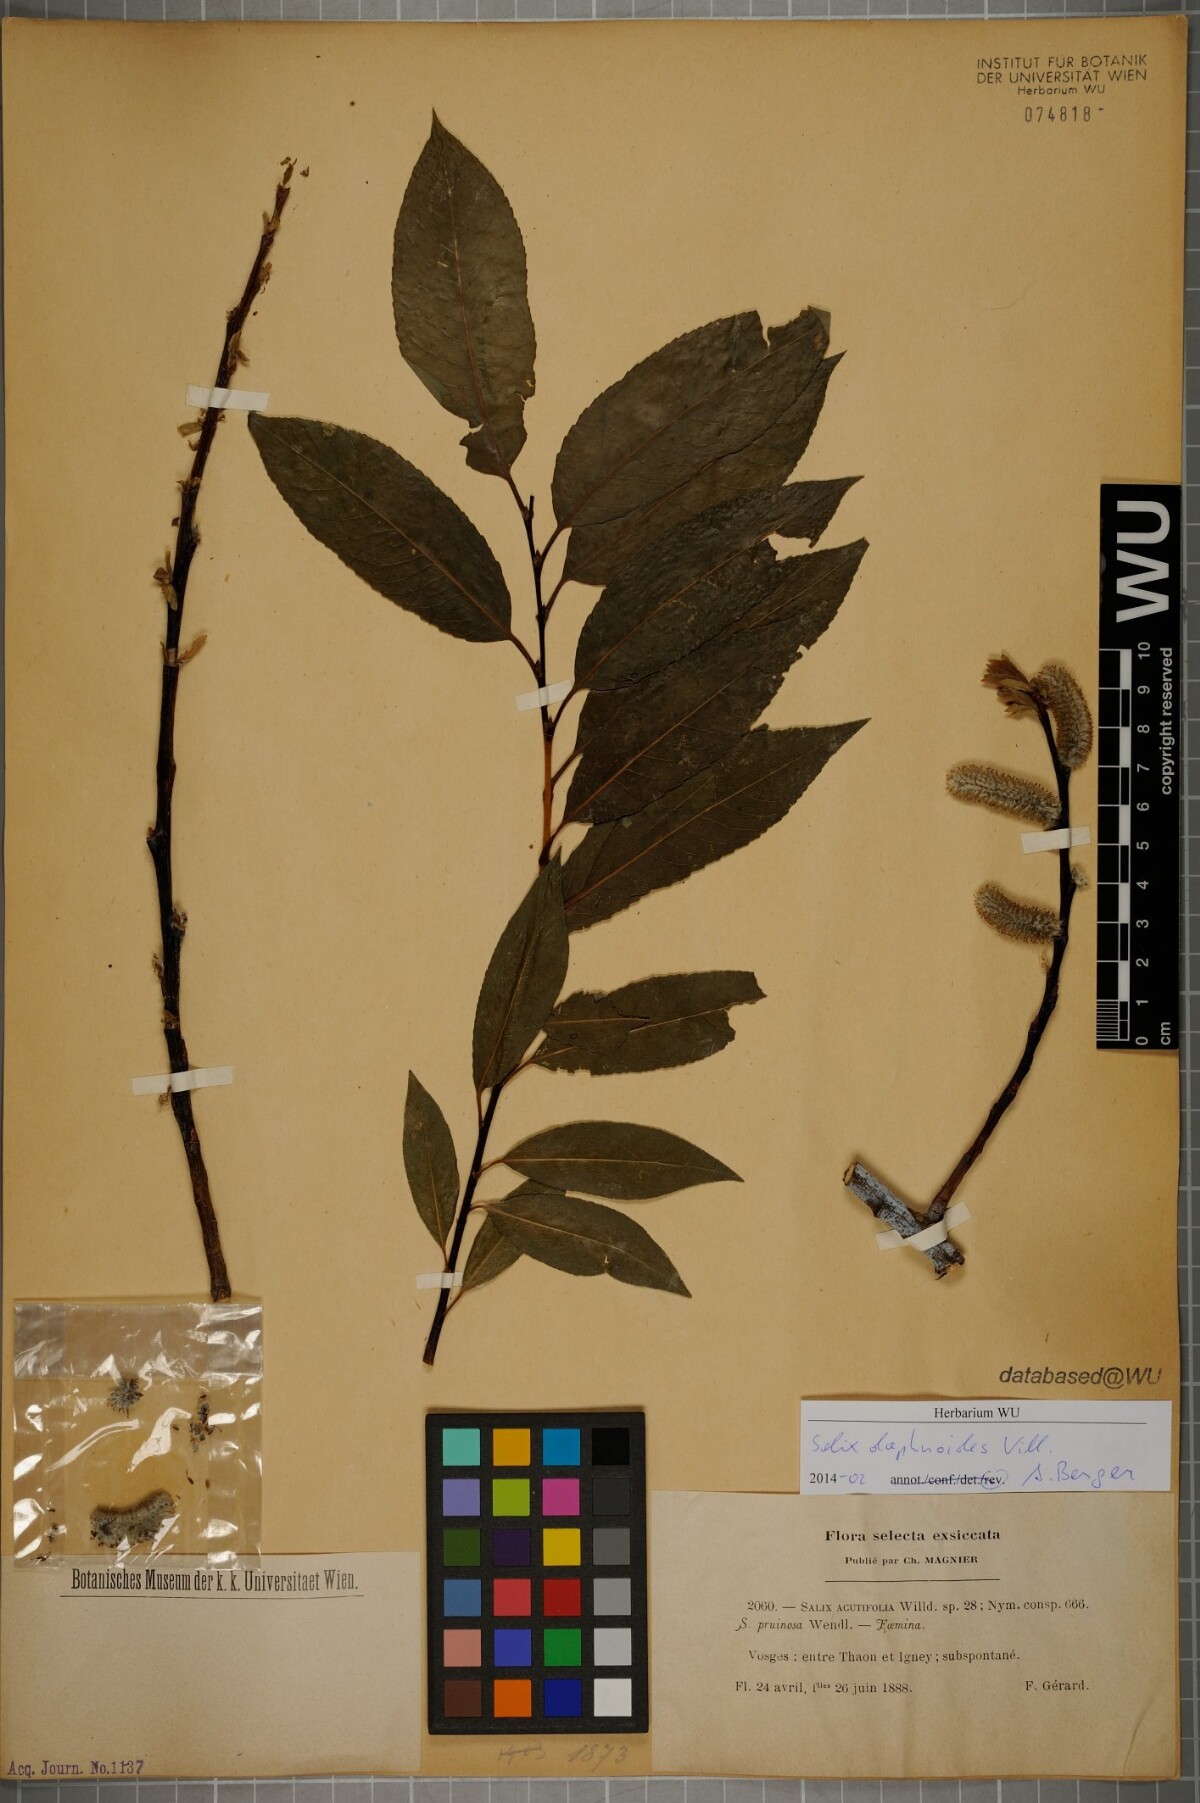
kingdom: Plantae
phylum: Tracheophyta
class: Magnoliopsida
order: Malpighiales
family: Salicaceae
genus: Salix
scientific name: Salix daphnoides
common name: European violet-willow
